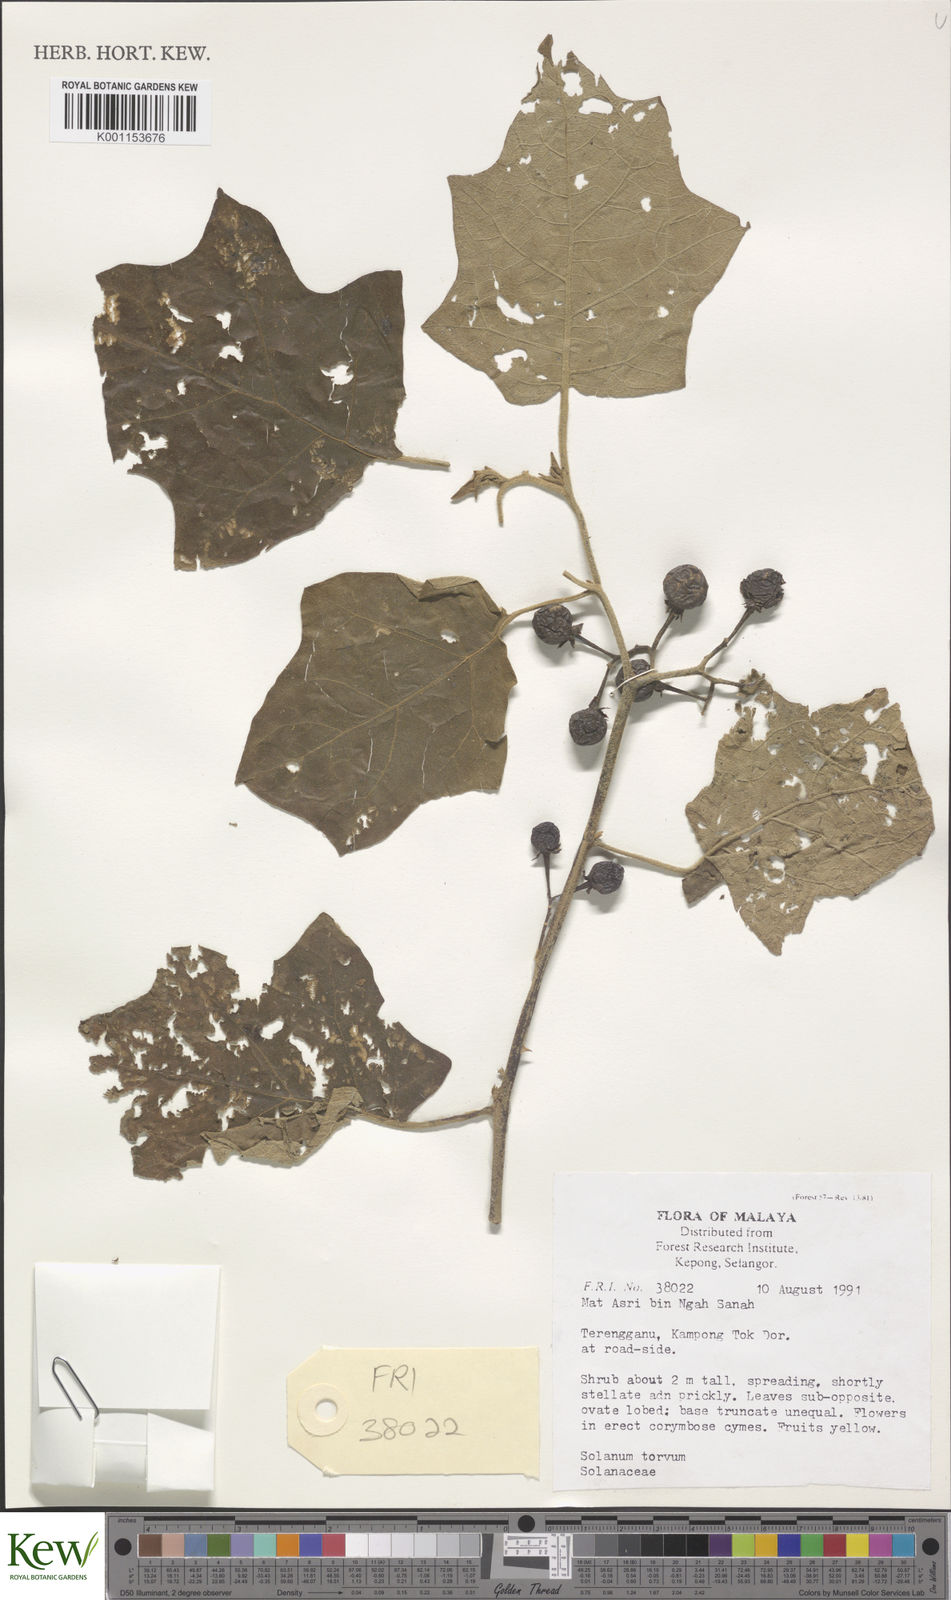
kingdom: Plantae
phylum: Tracheophyta
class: Magnoliopsida
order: Solanales
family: Solanaceae
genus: Solanum
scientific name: Solanum torvum
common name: Turkey berry
